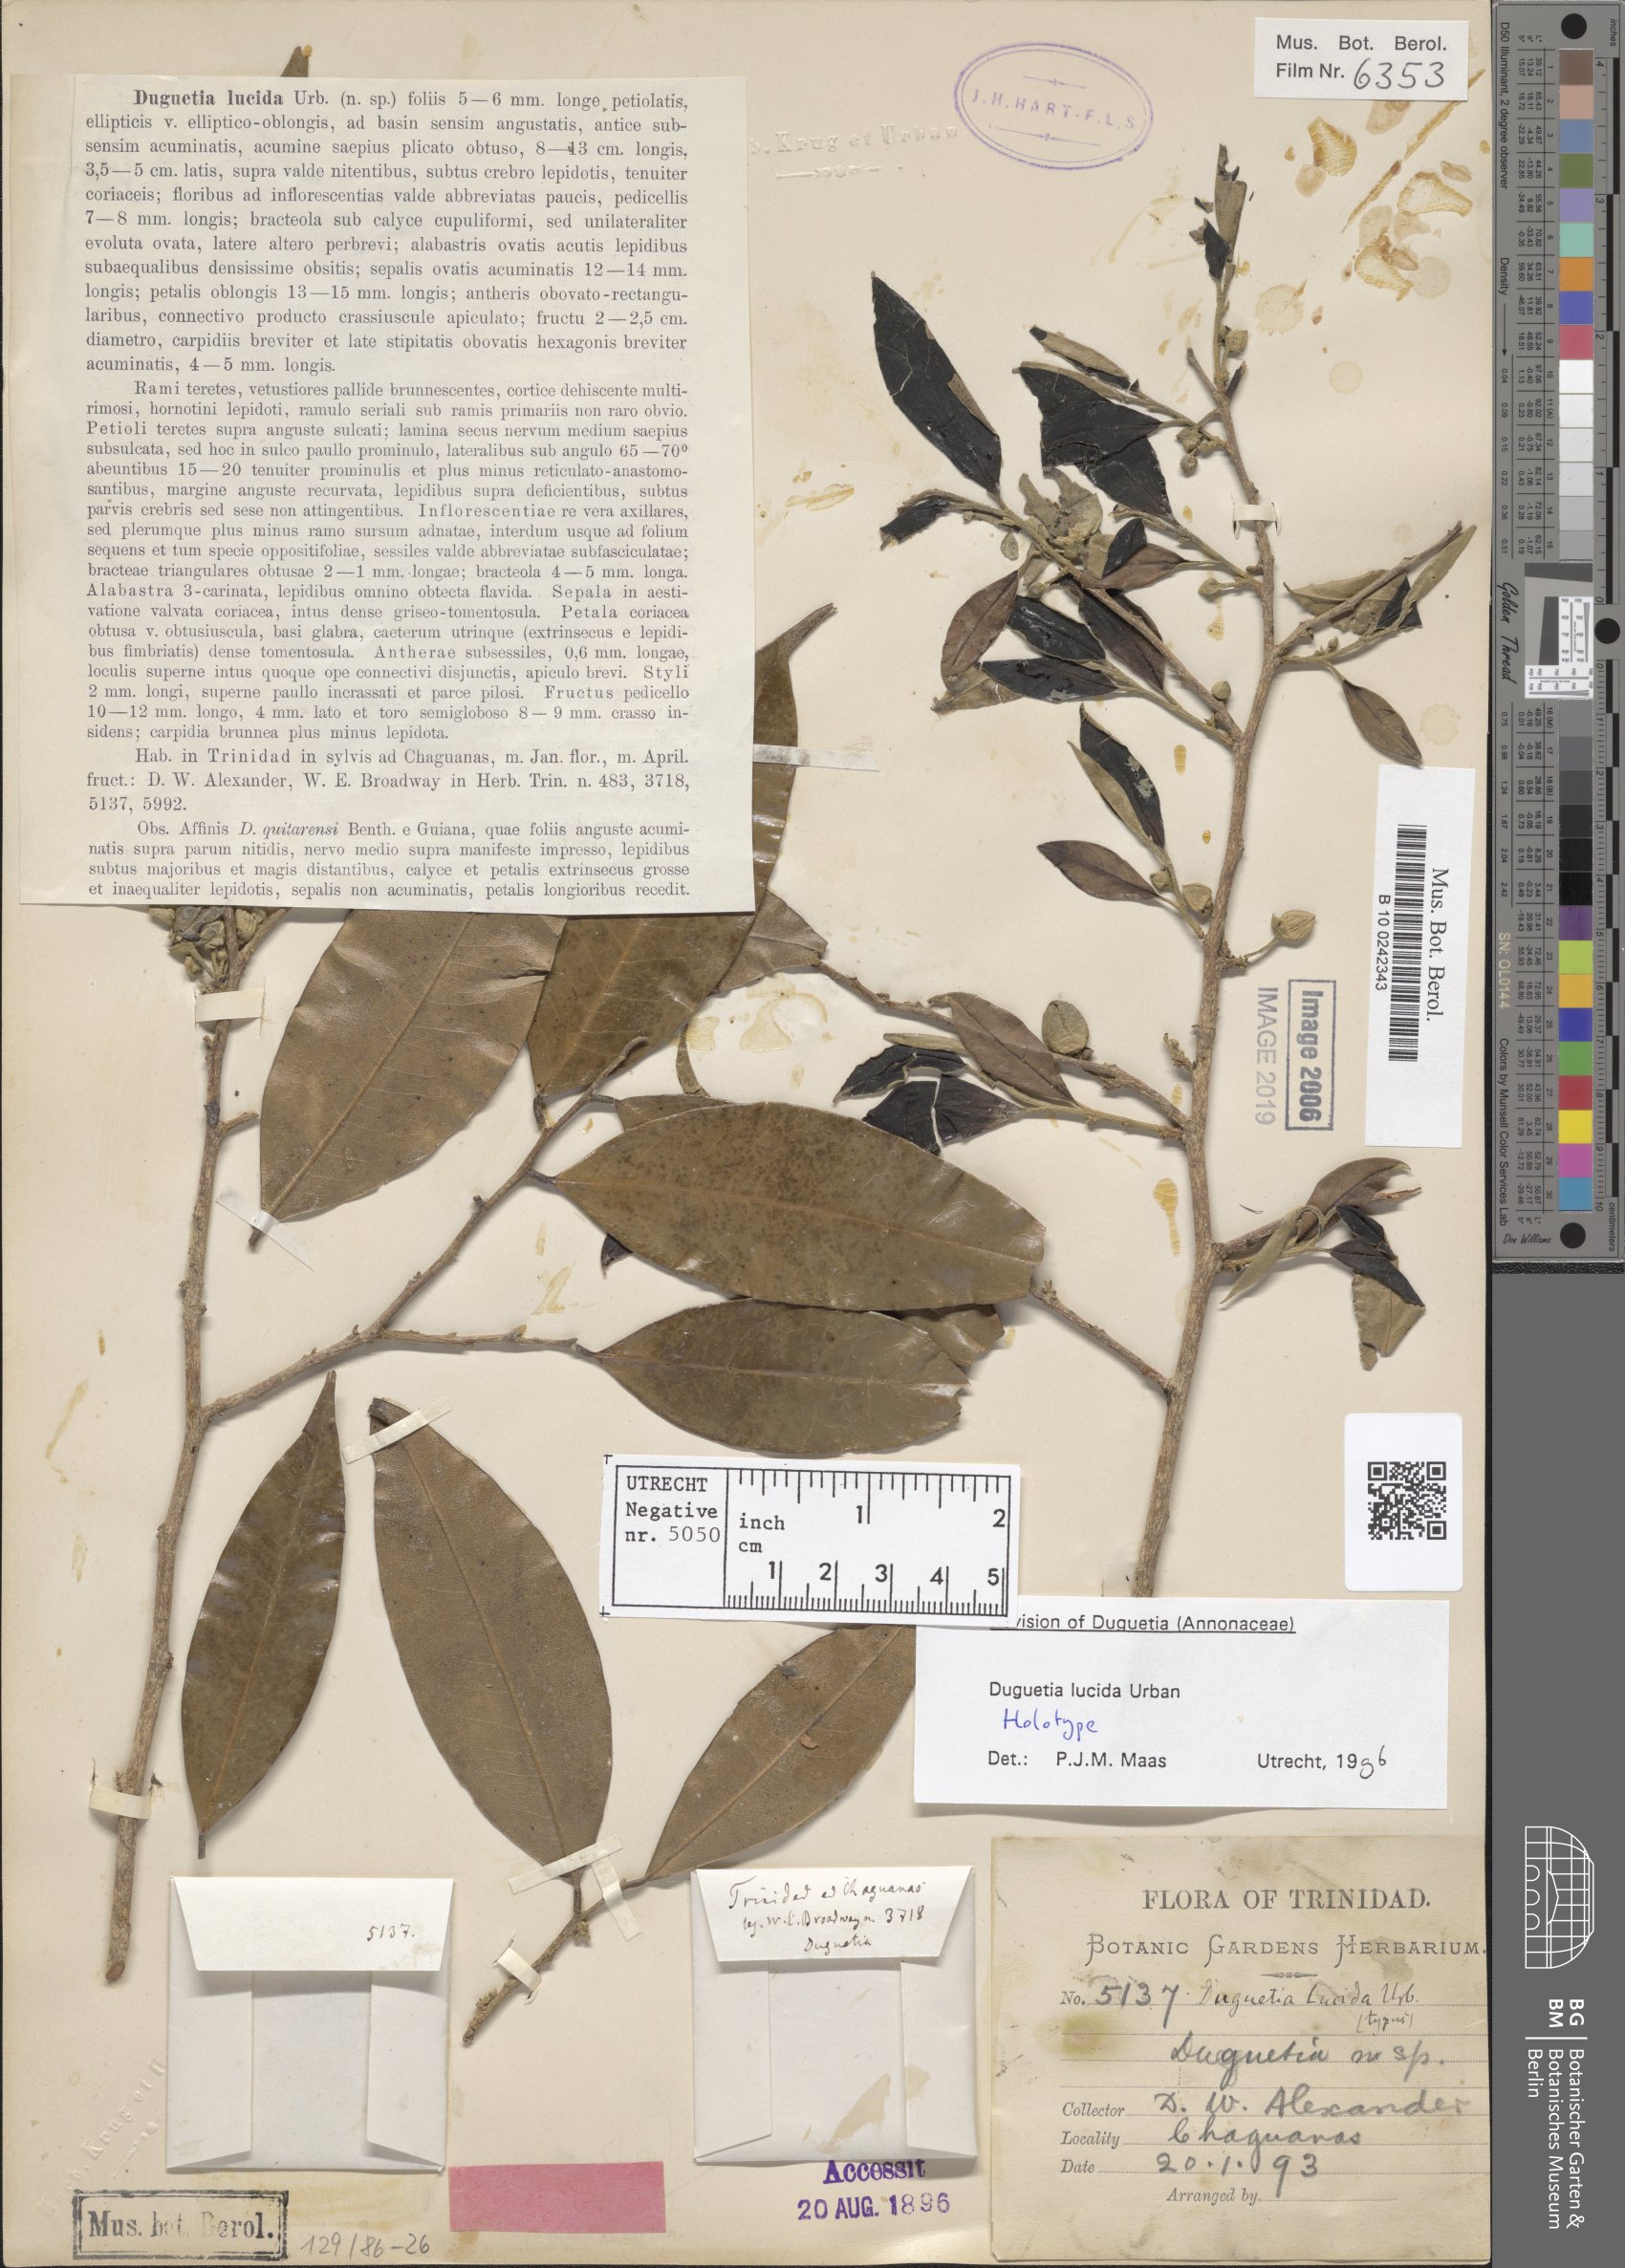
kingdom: Plantae
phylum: Tracheophyta
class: Magnoliopsida
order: Magnoliales
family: Annonaceae
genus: Duguetia
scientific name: Duguetia lucida
